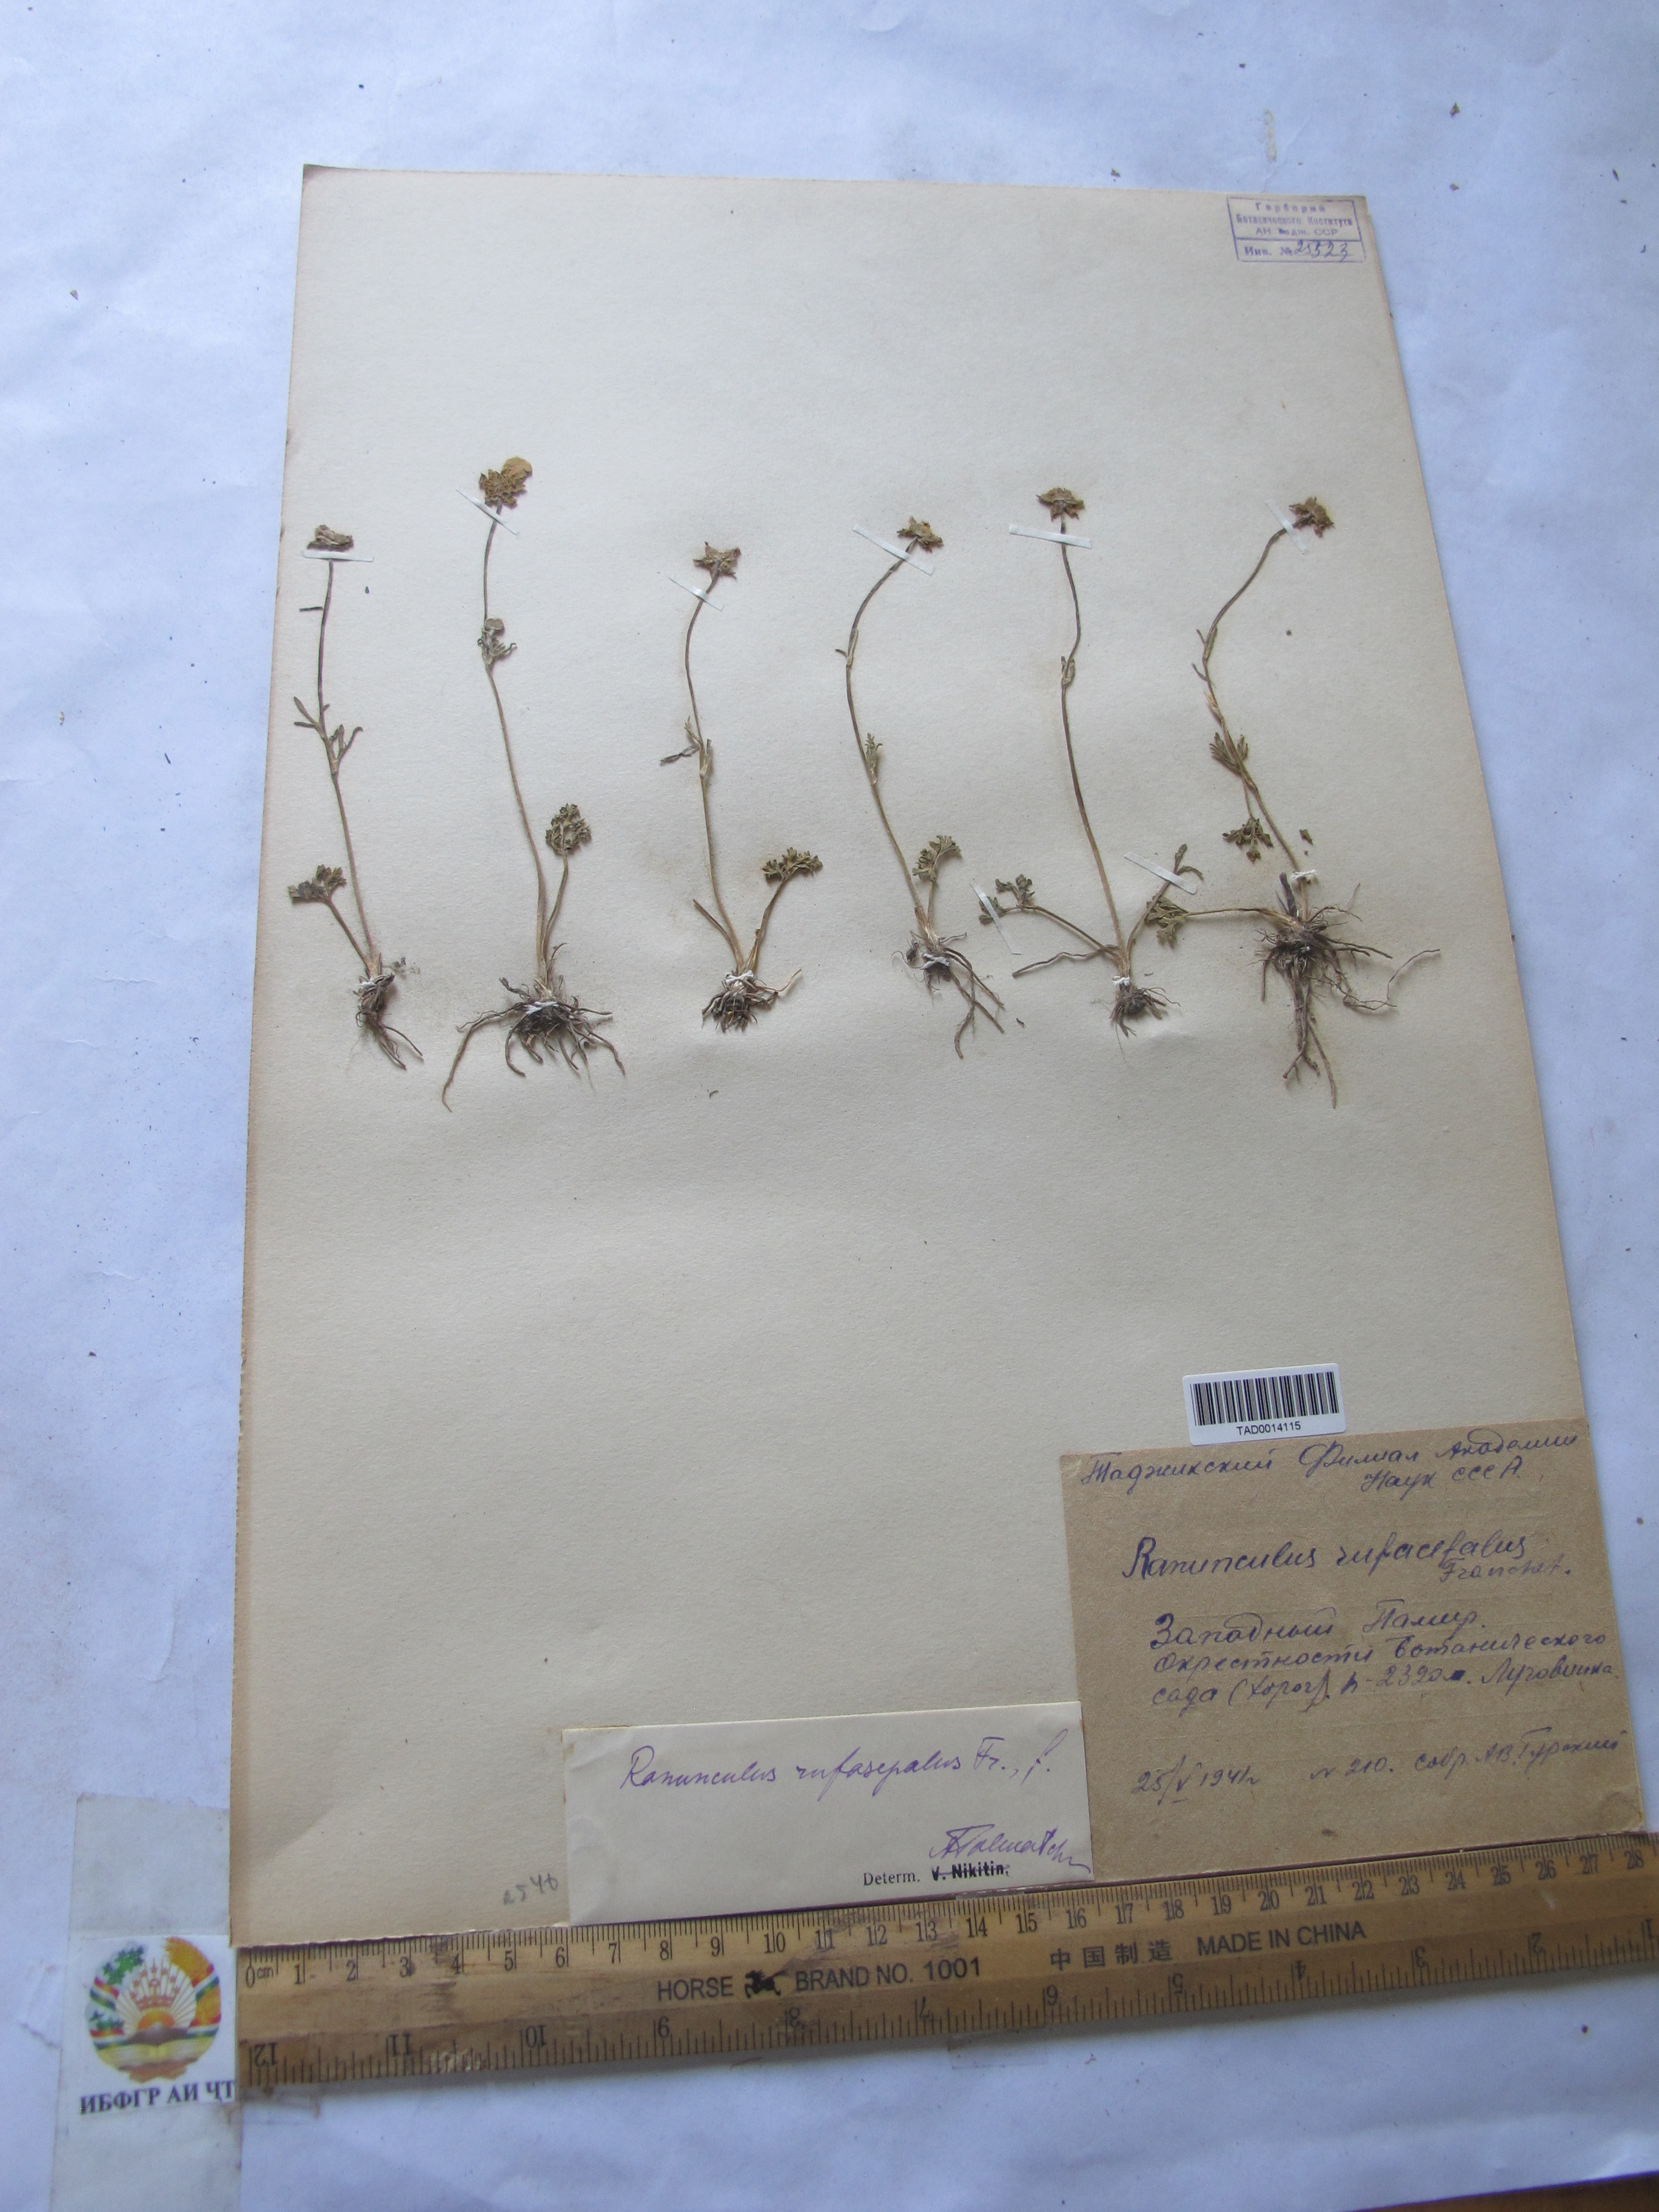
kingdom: Plantae
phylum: Tracheophyta
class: Magnoliopsida
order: Ranunculales
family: Ranunculaceae
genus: Ranunculus
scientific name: Ranunculus rufosepalus
